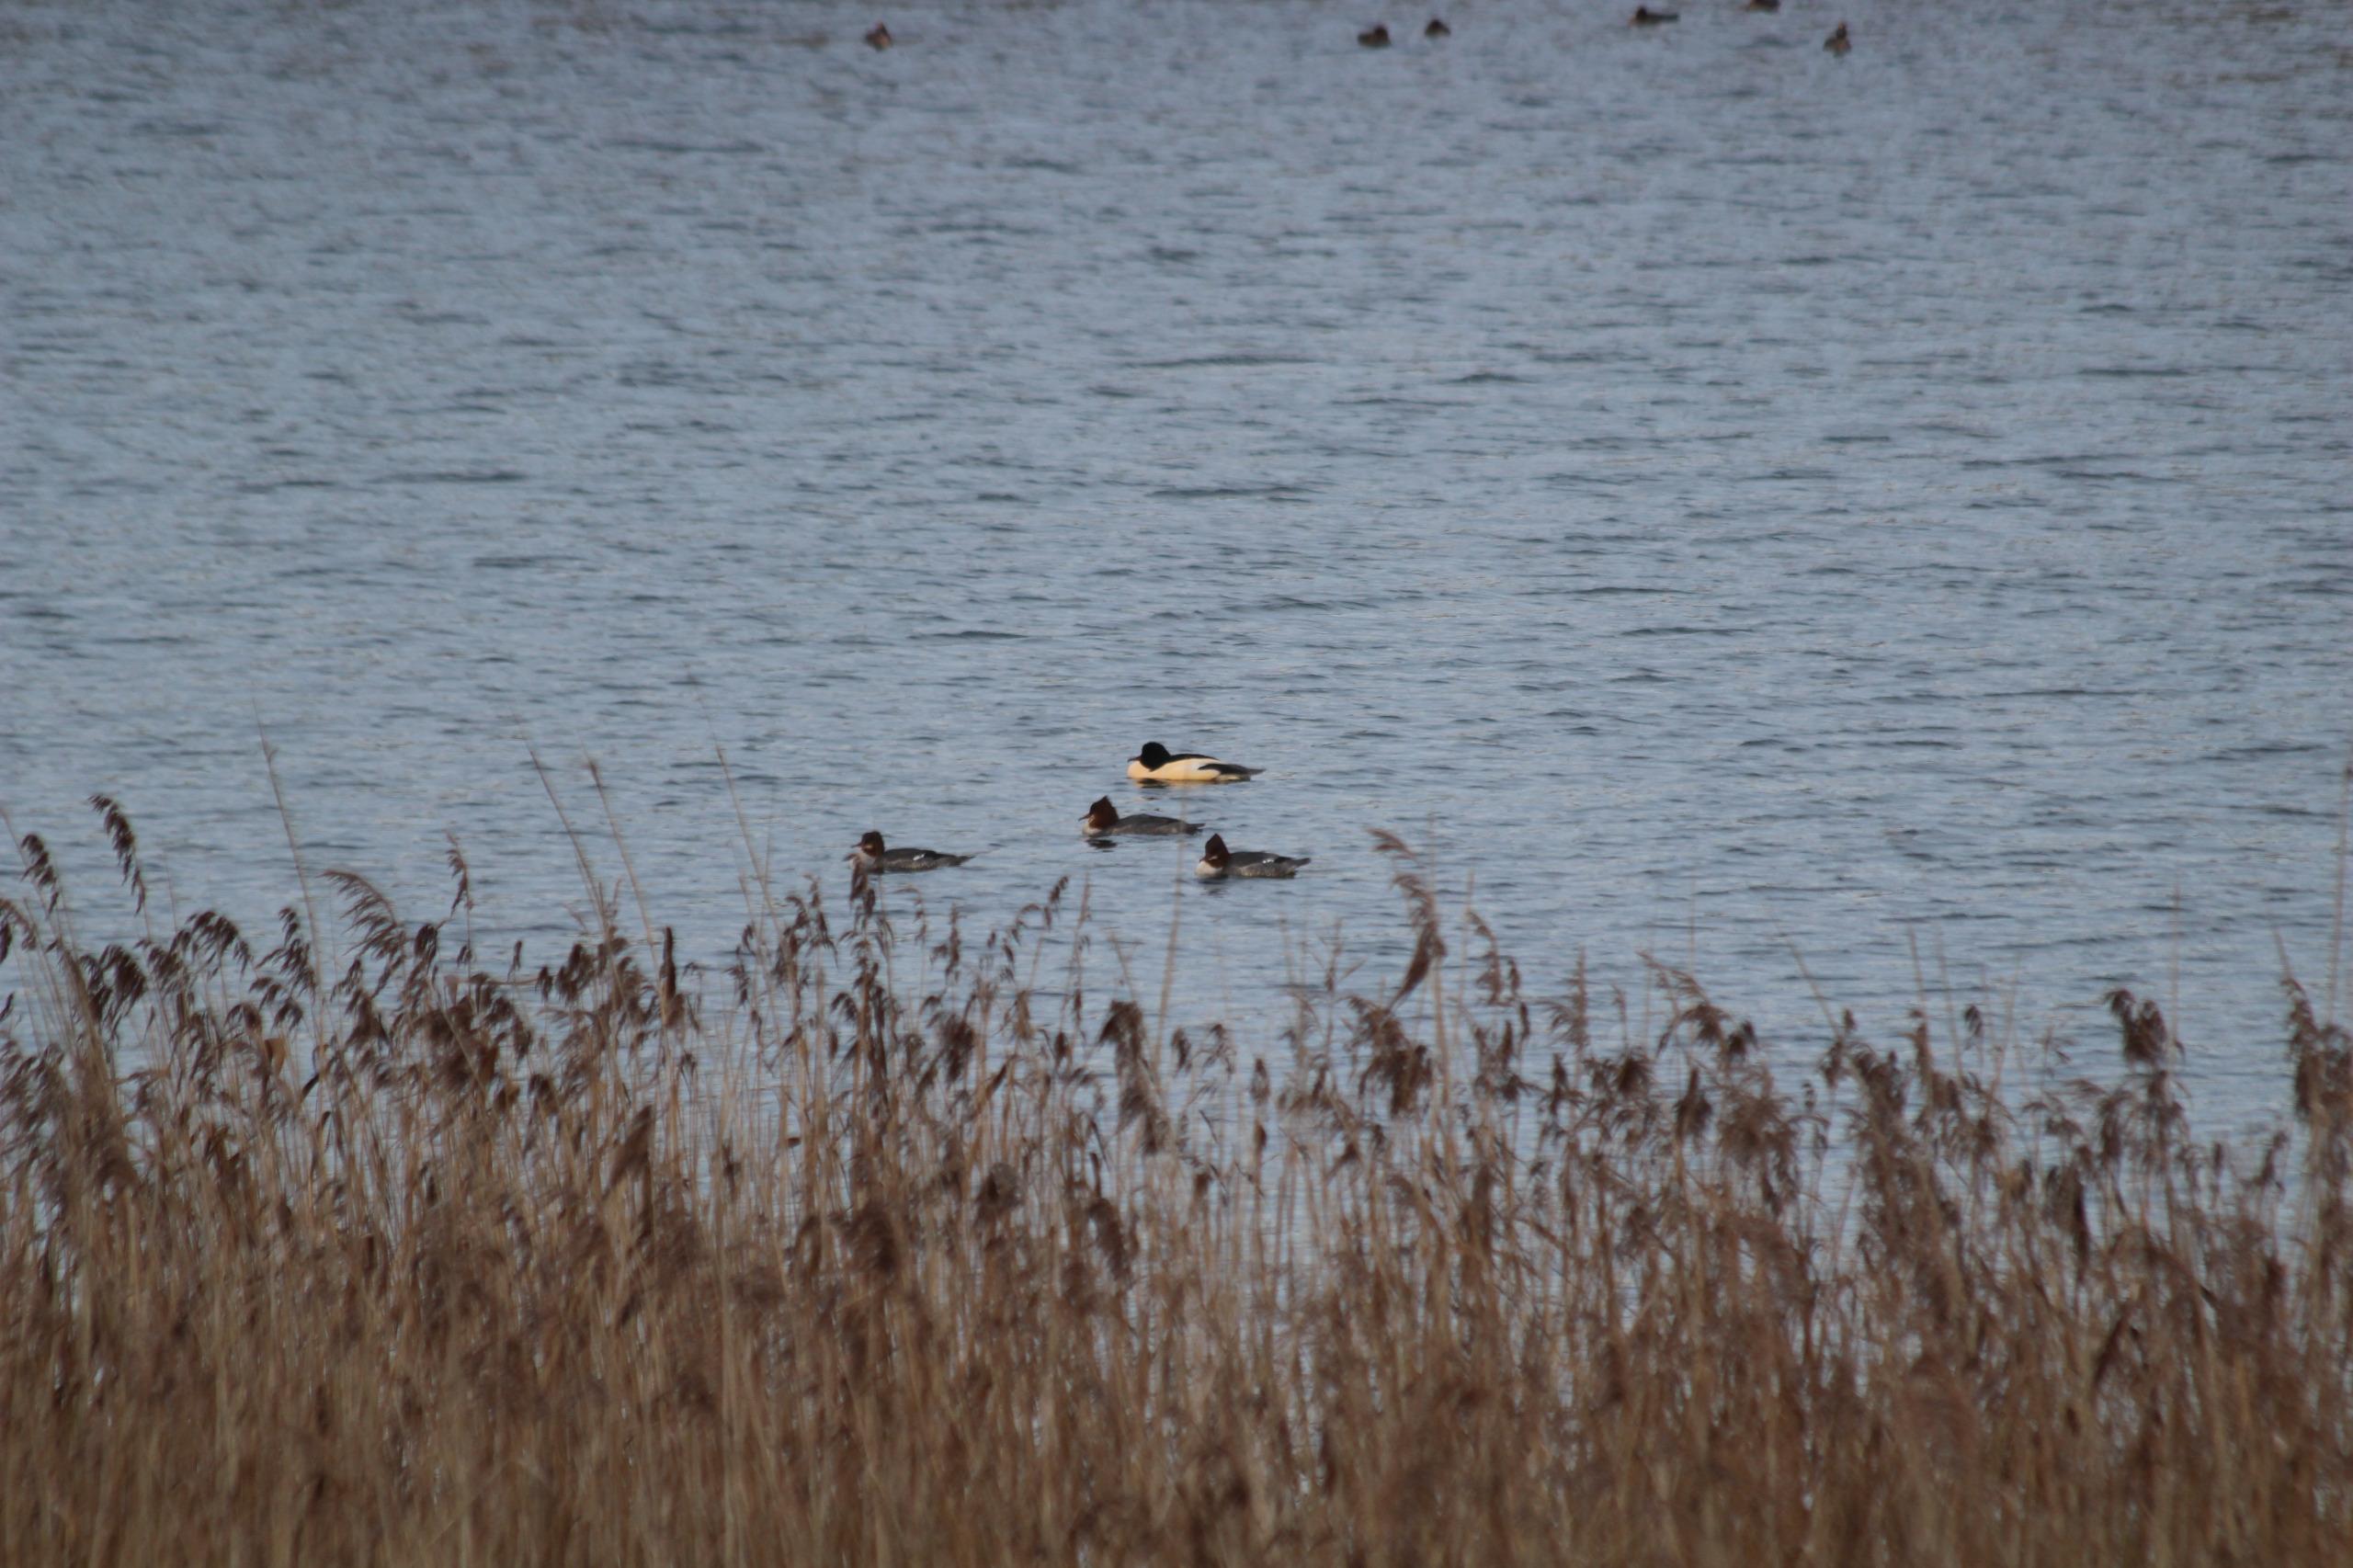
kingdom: Animalia
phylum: Chordata
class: Aves
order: Anseriformes
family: Anatidae
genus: Mergus
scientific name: Mergus merganser
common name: Stor skallesluger
